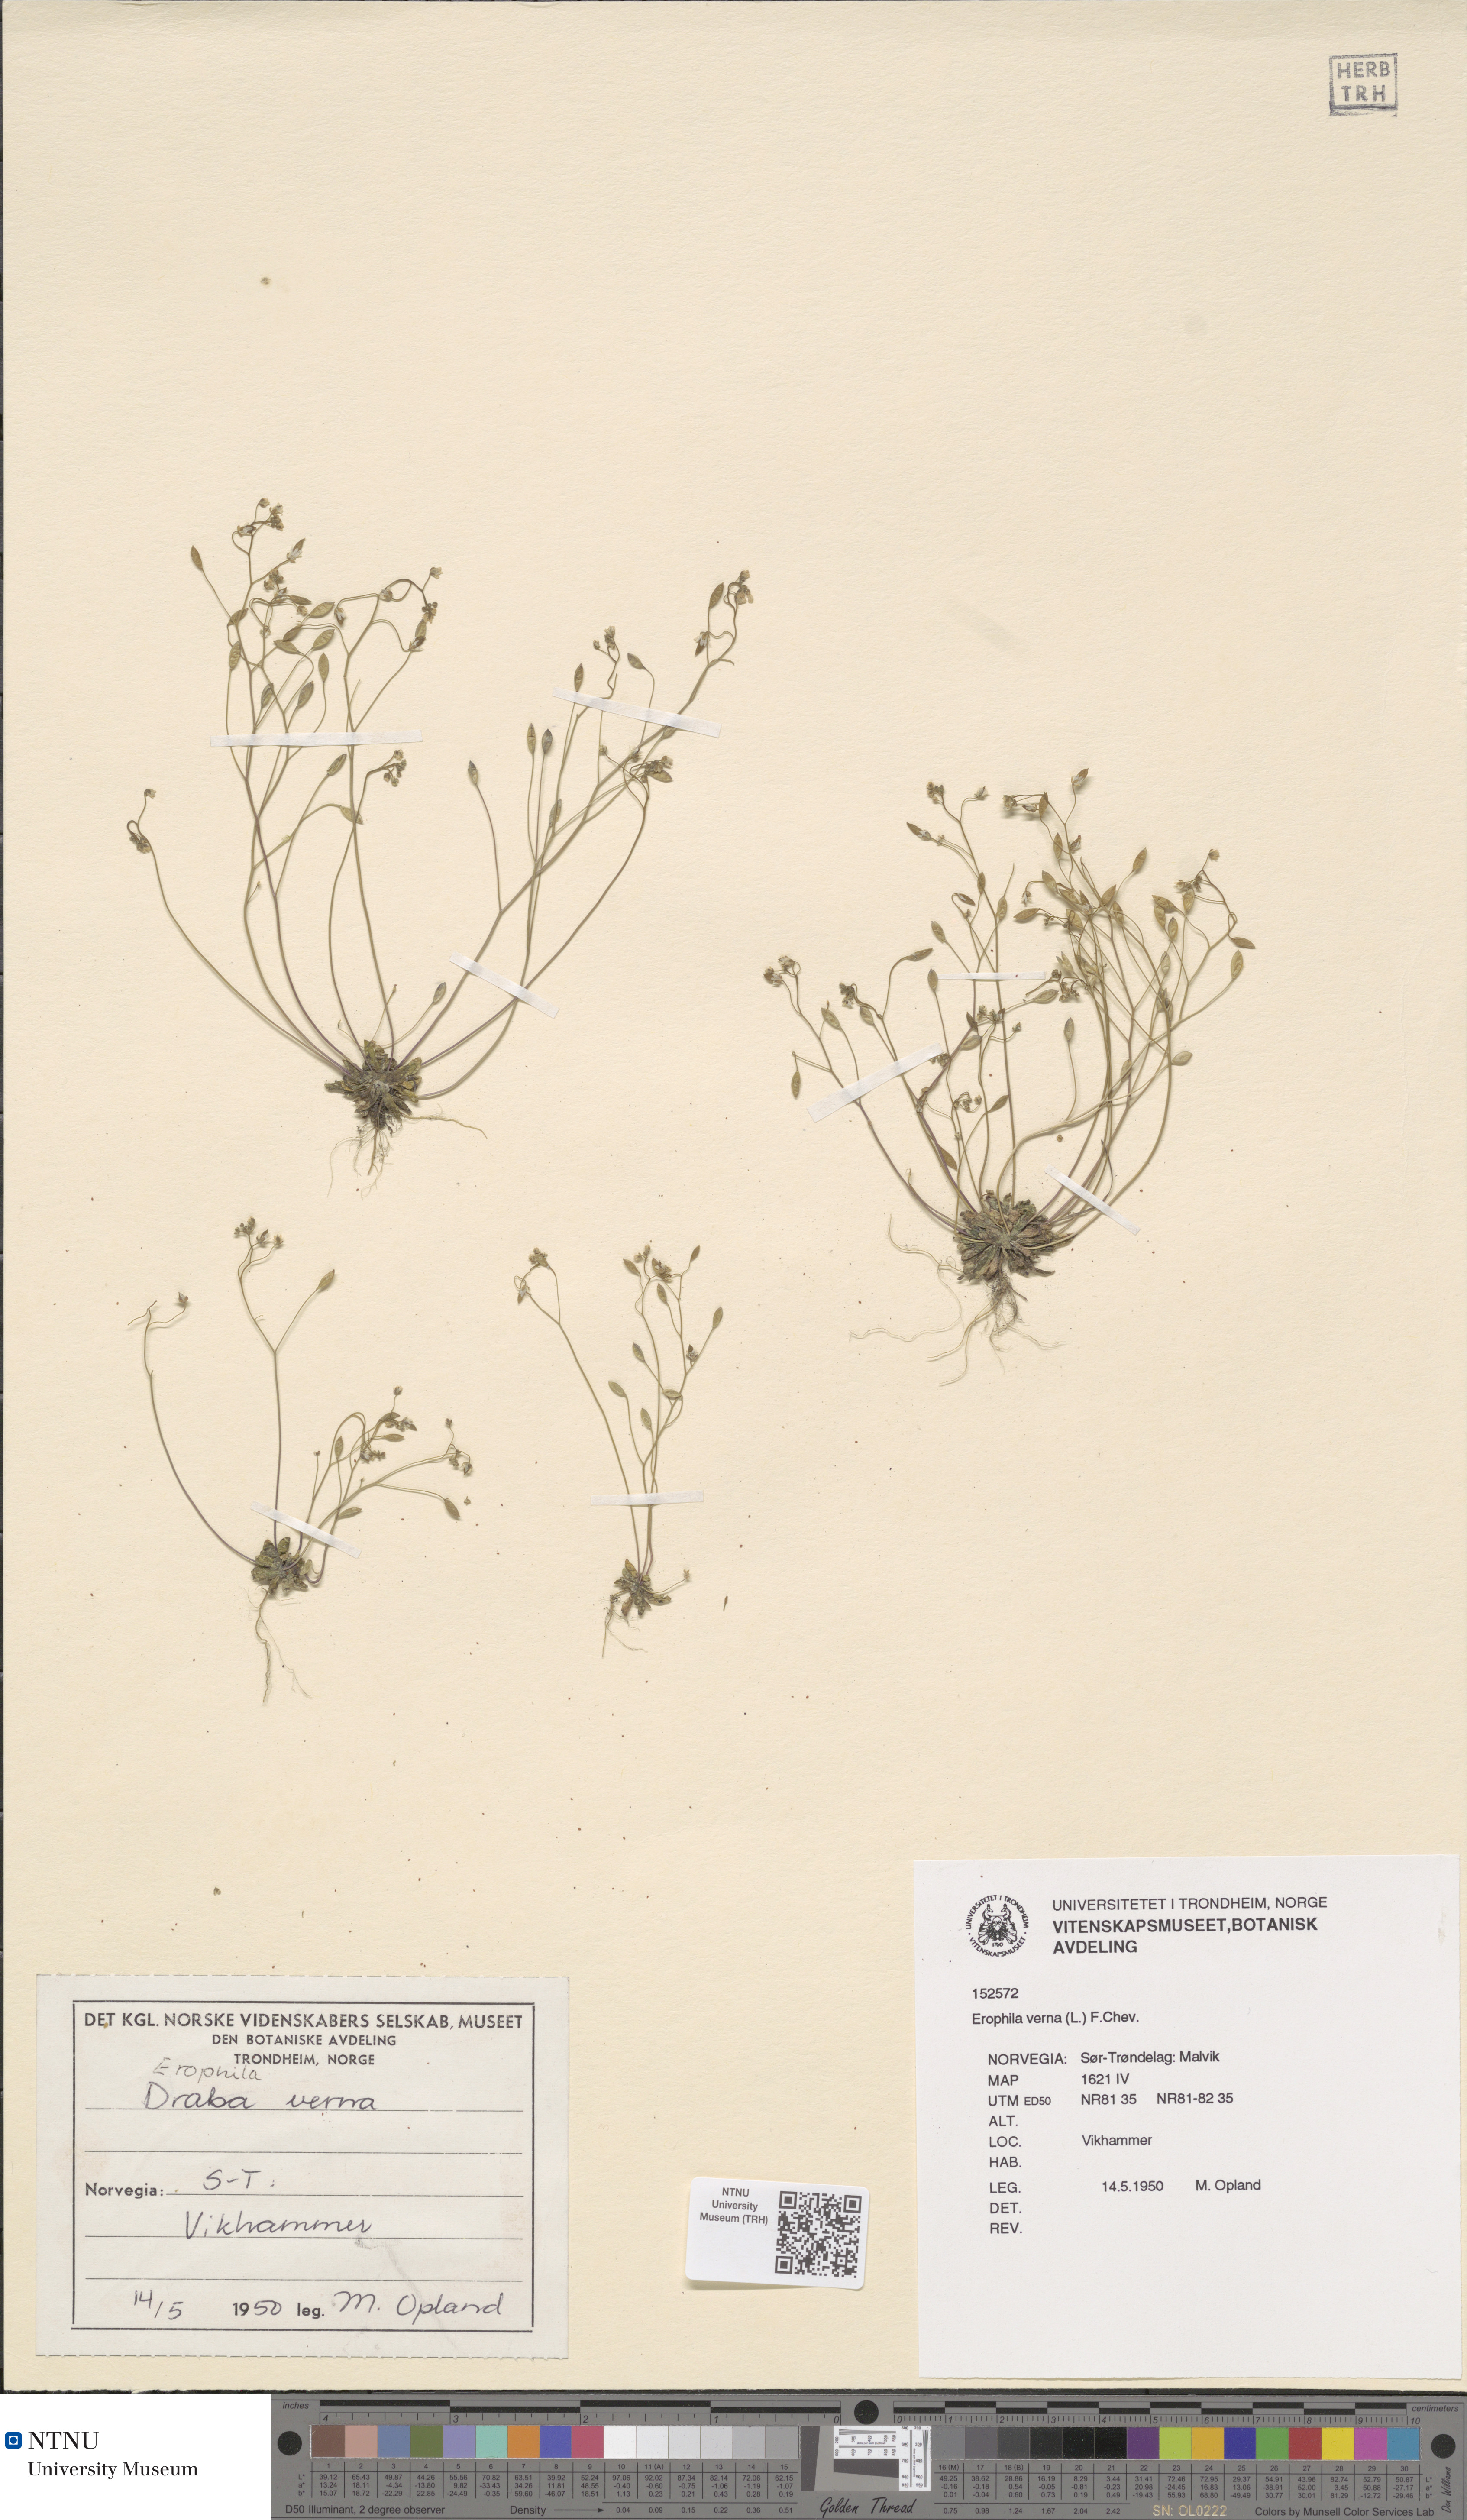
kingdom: Plantae
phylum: Tracheophyta
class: Magnoliopsida
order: Brassicales
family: Brassicaceae
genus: Draba
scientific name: Draba verna
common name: Spring draba
